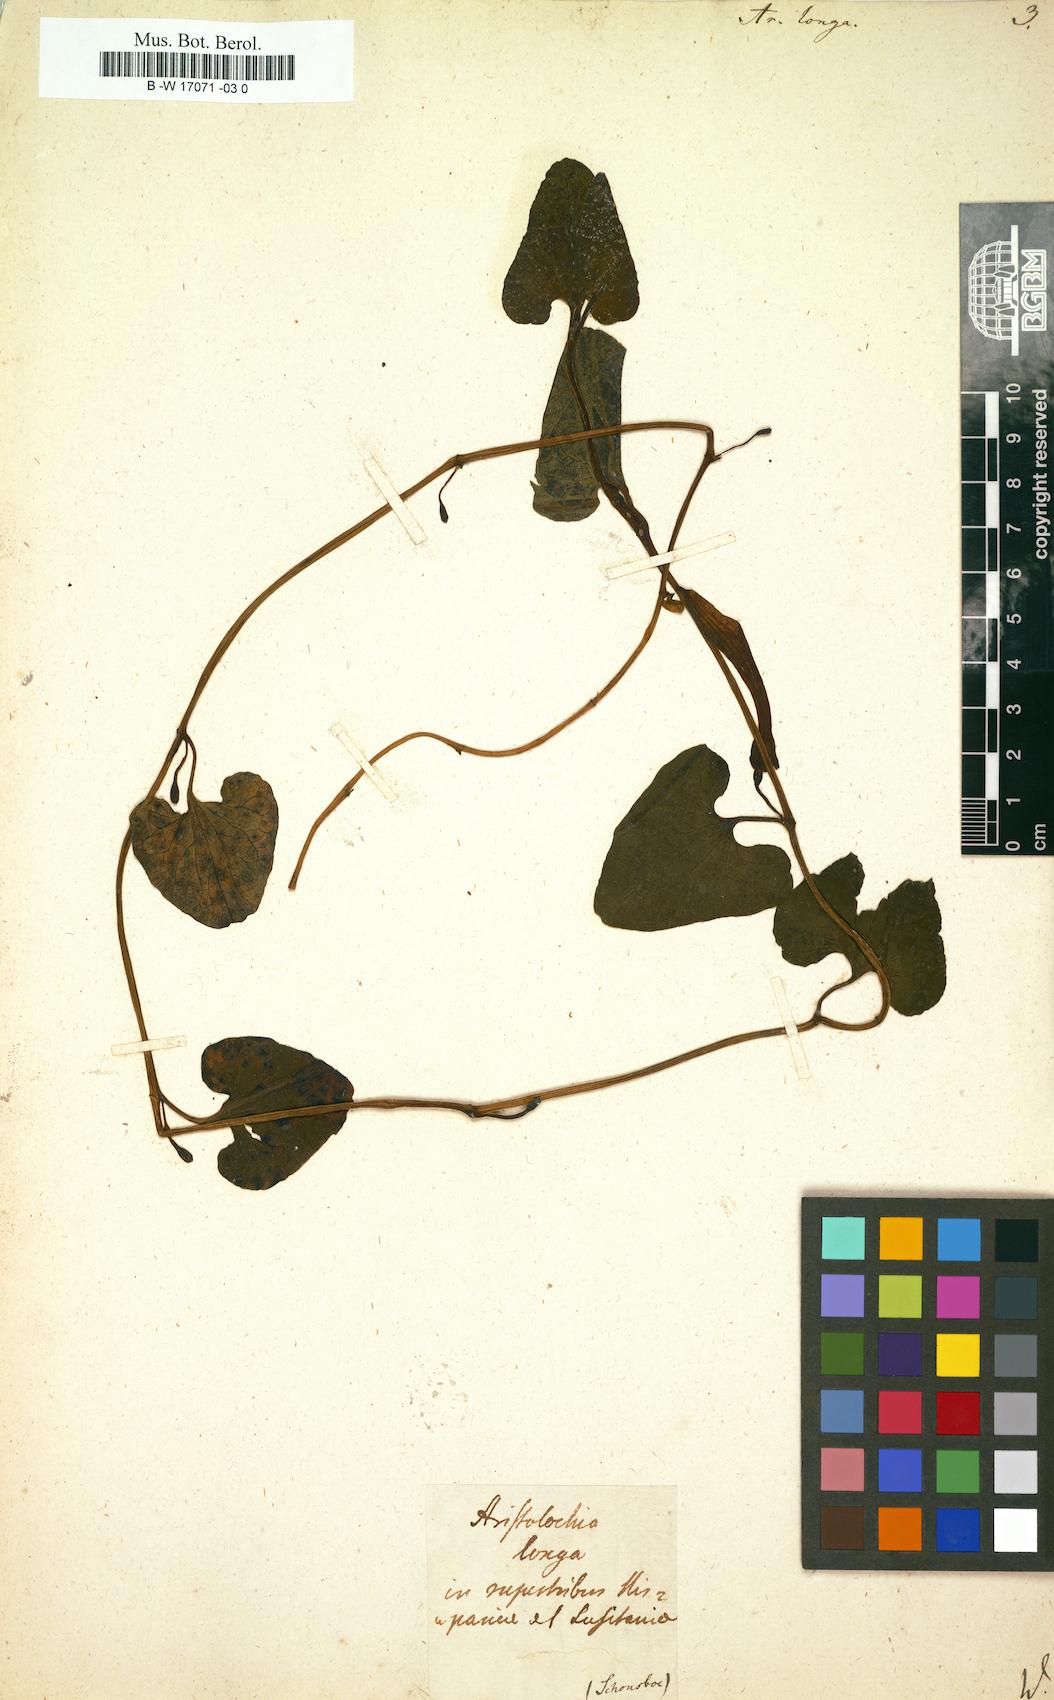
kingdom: Plantae
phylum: Tracheophyta
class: Magnoliopsida
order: Piperales
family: Aristolochiaceae
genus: Aristolochia
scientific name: Aristolochia fontanesii
